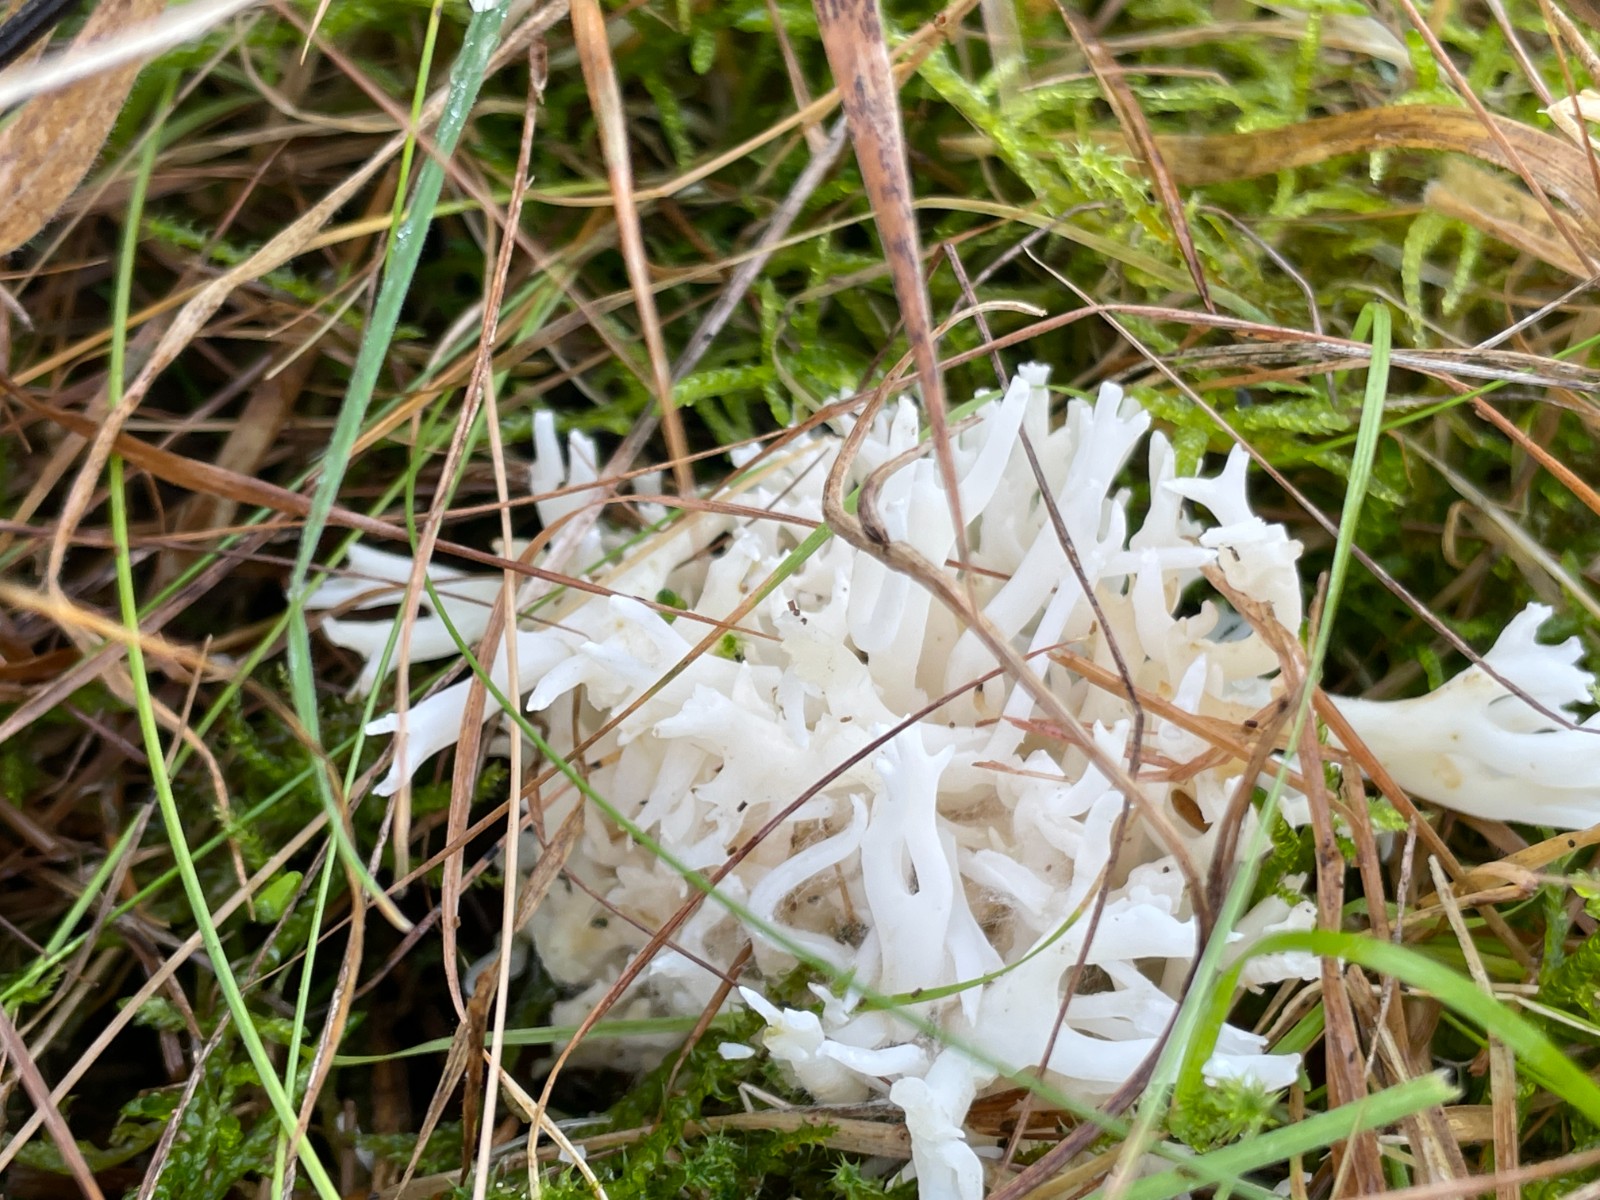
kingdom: Fungi
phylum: Basidiomycota
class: Agaricomycetes
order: Agaricales
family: Clavariaceae
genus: Ramariopsis
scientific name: Ramariopsis robusta
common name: tykgrenet køllesvamp
